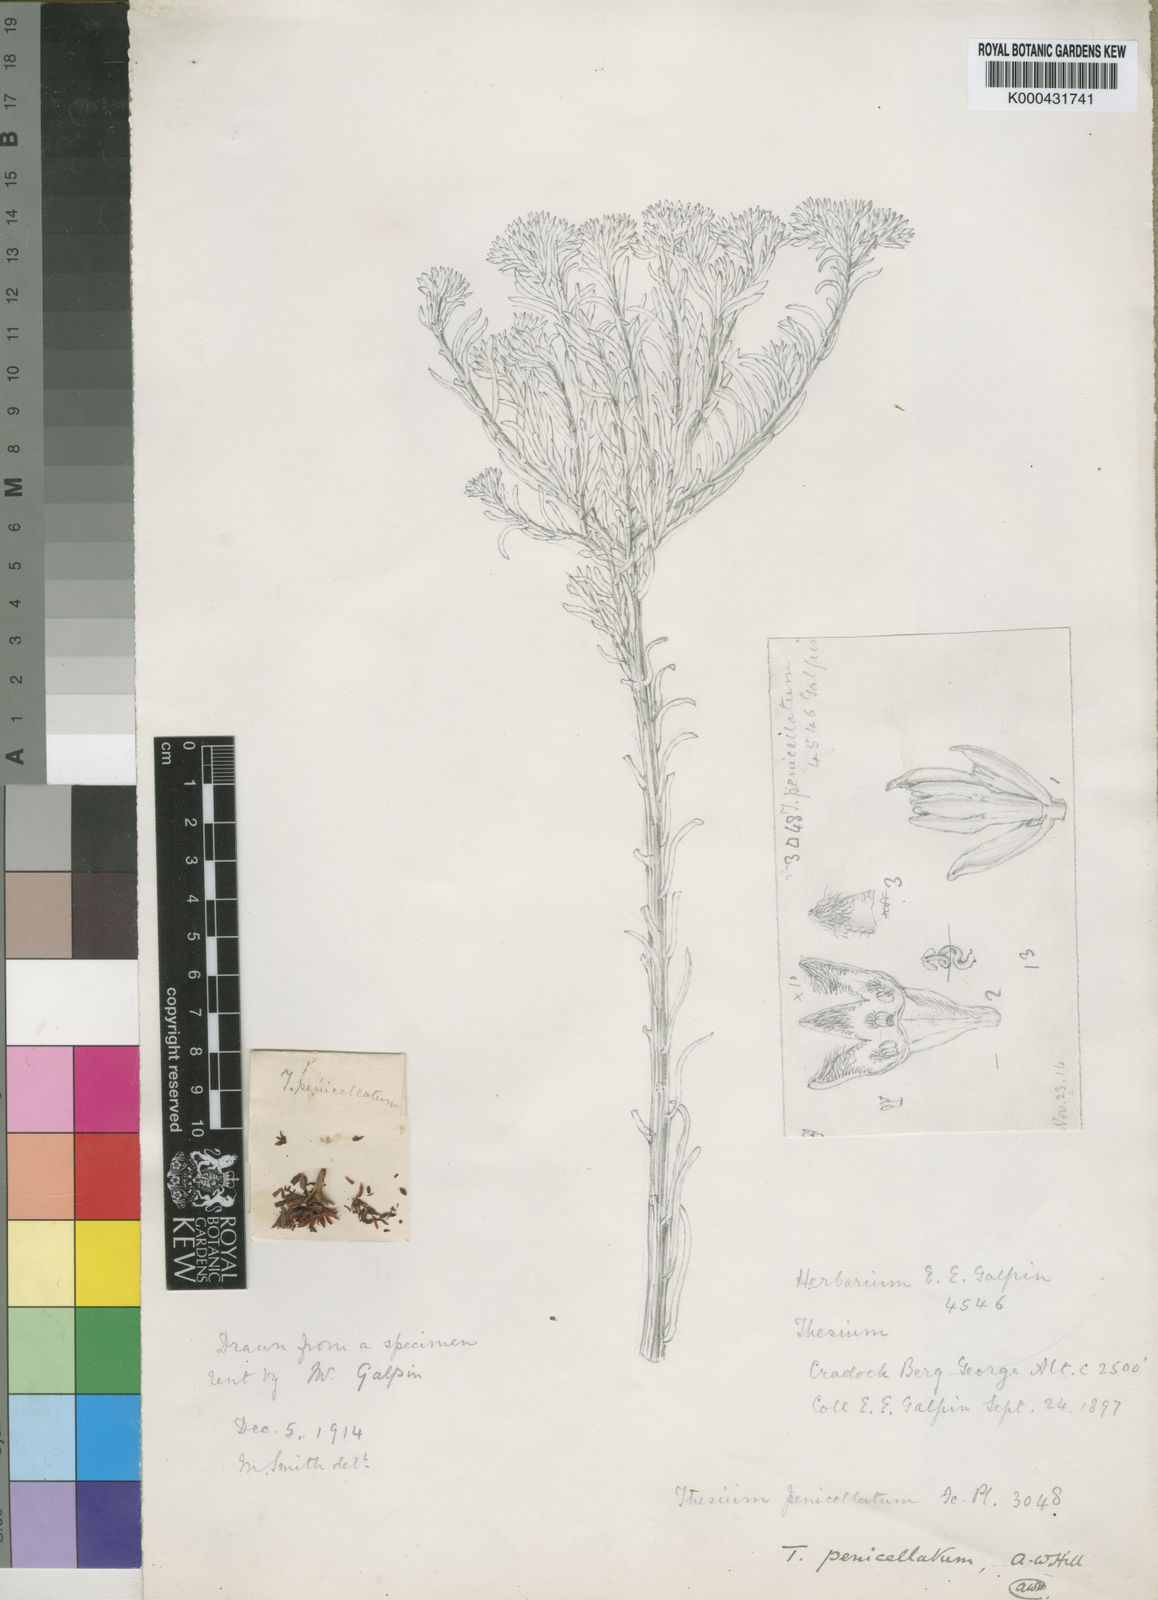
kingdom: Plantae
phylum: Tracheophyta
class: Magnoliopsida
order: Santalales
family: Thesiaceae
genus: Thesium
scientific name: Thesium penicillatum
